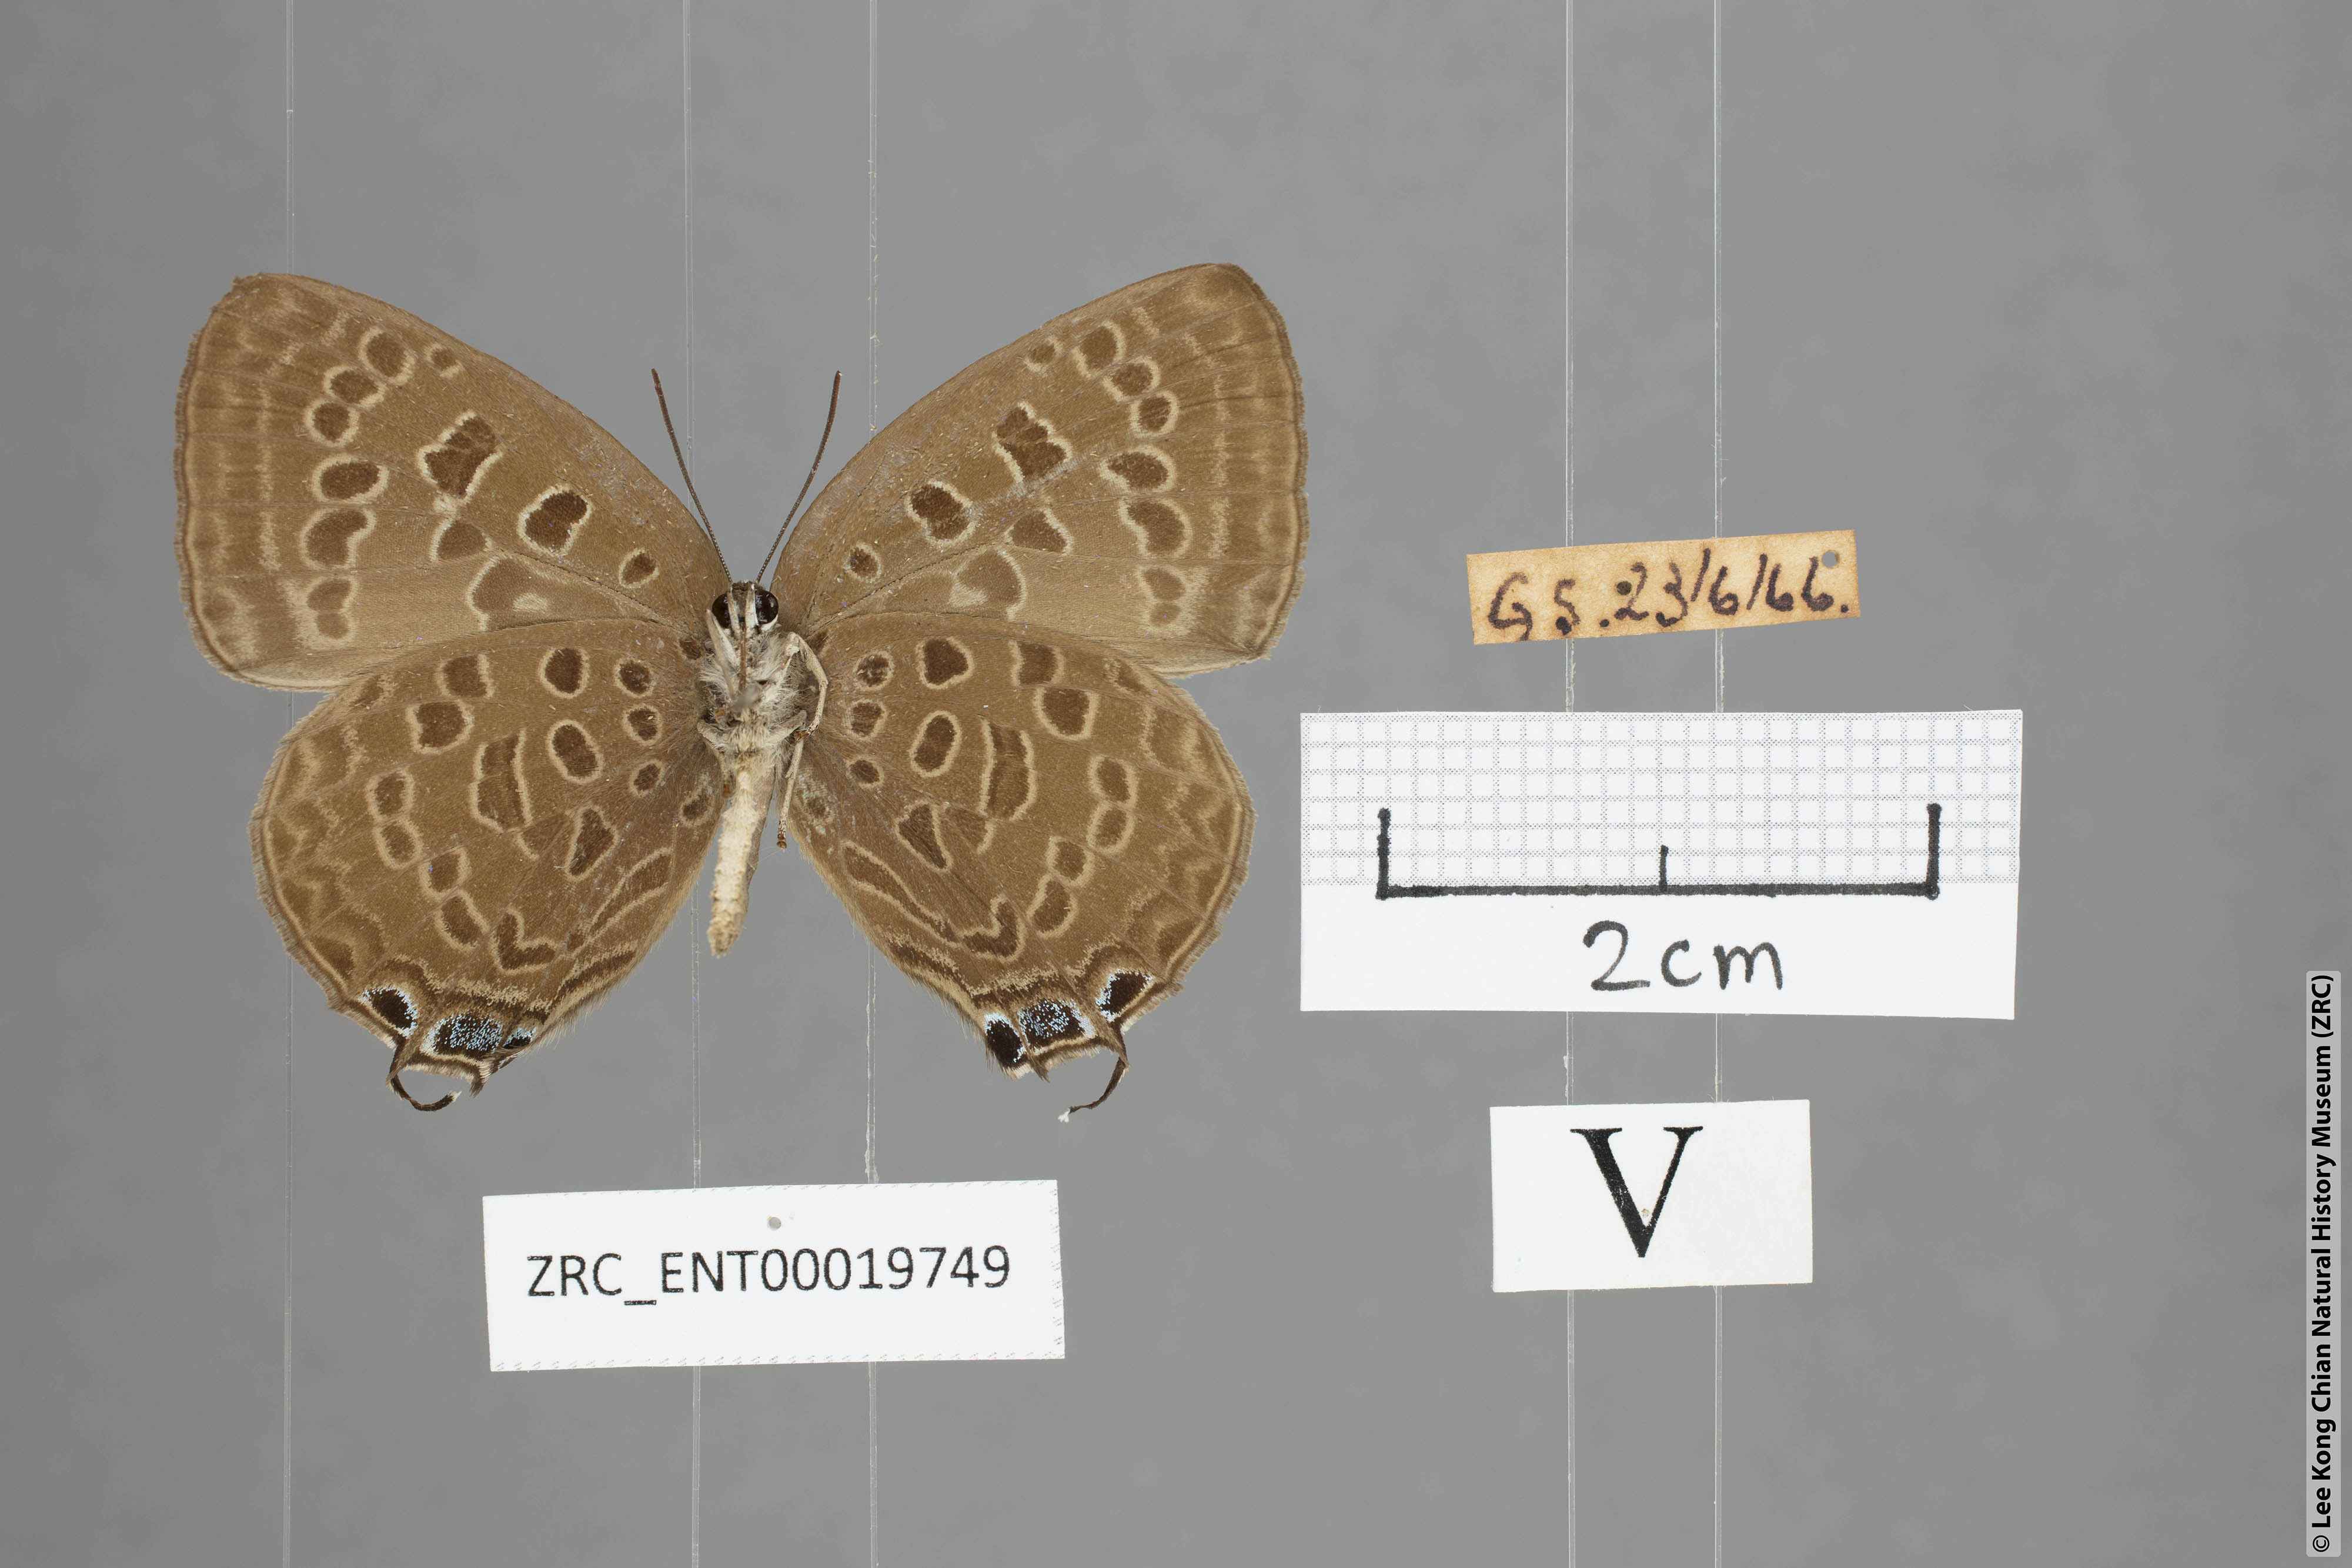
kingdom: Animalia
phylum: Arthropoda
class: Insecta
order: Lepidoptera
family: Lycaenidae
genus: Arhopala
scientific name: Arhopala opalina
